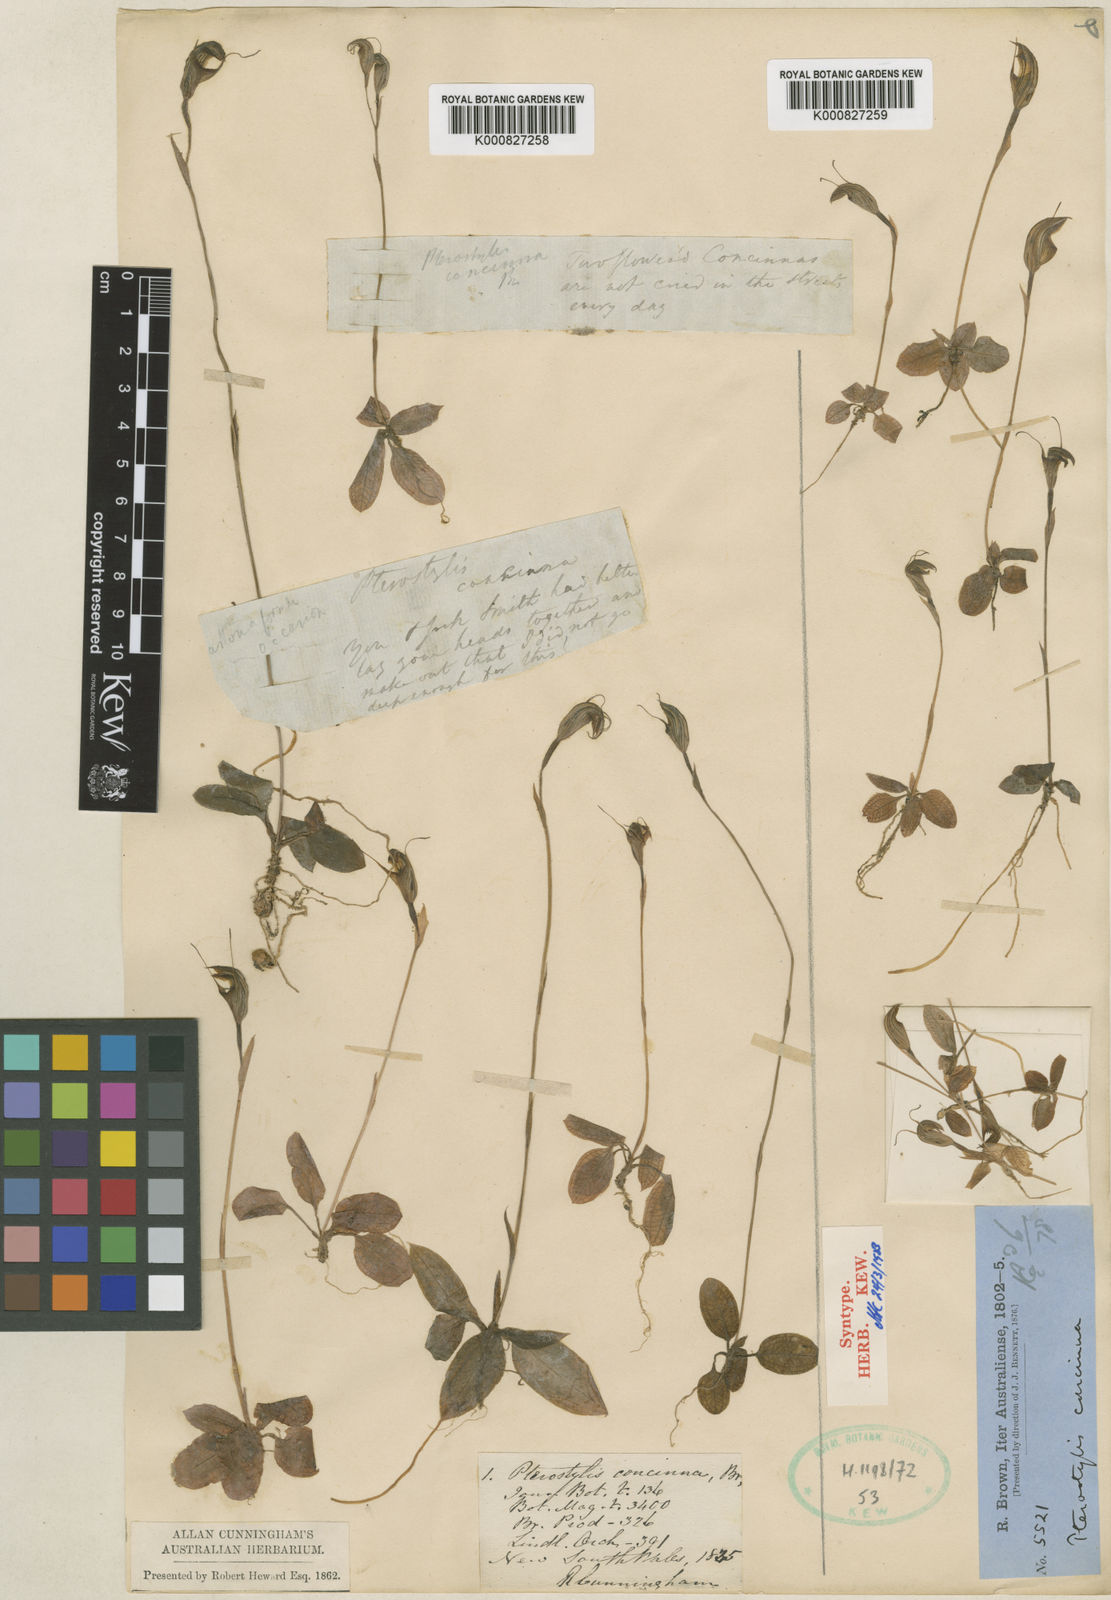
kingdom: Plantae
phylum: Tracheophyta
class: Liliopsida
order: Asparagales
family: Orchidaceae
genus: Pterostylis
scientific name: Pterostylis concinna
